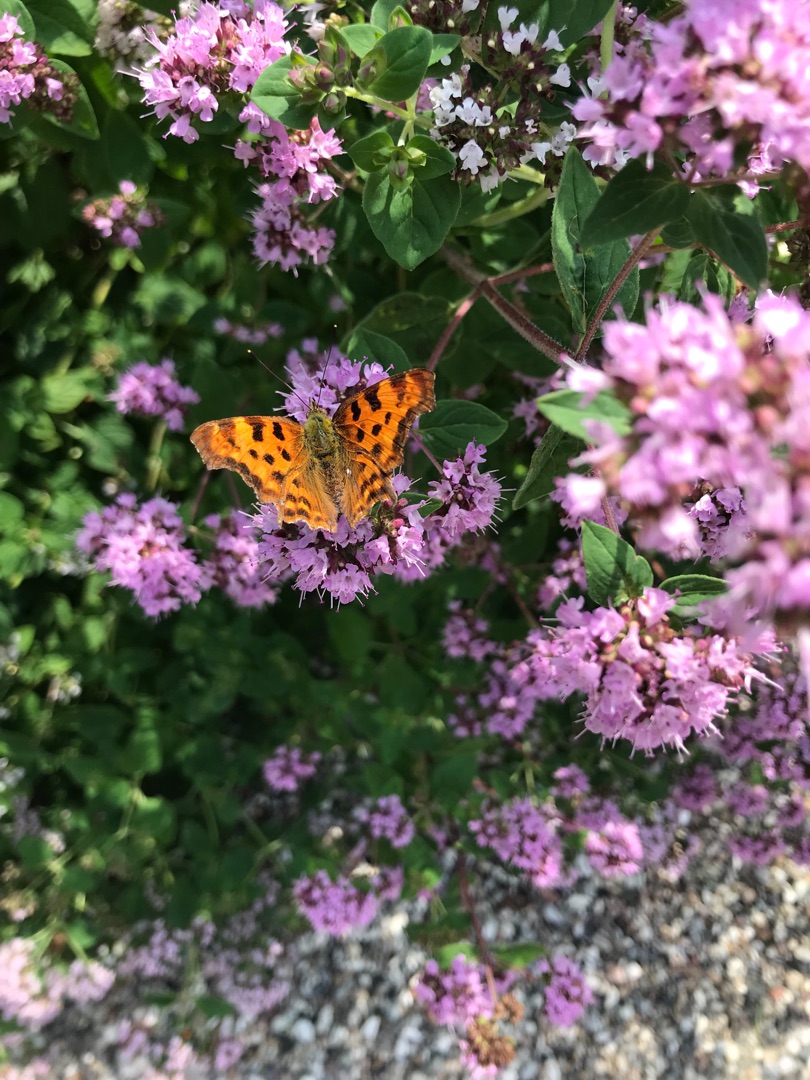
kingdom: Animalia
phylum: Arthropoda
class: Insecta
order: Lepidoptera
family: Nymphalidae
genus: Polygonia
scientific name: Polygonia c-album
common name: Det hvide C
